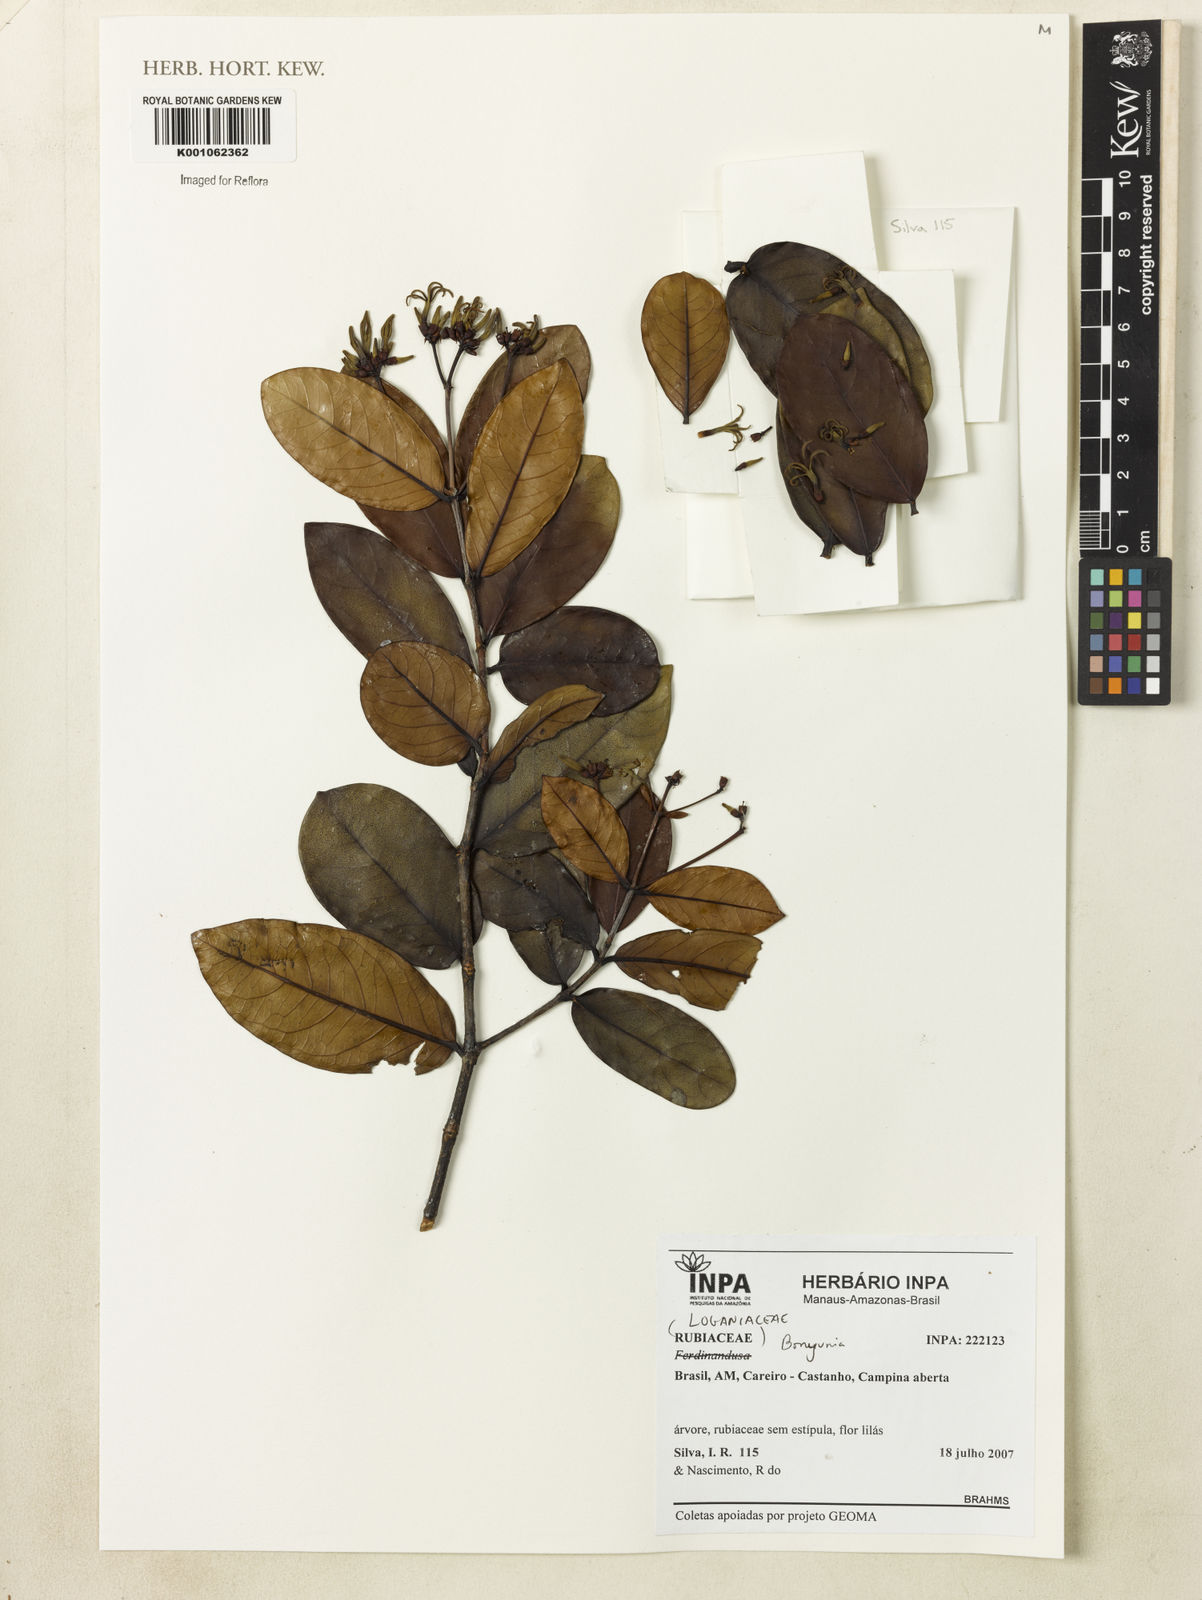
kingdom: Plantae
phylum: Tracheophyta
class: Magnoliopsida
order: Gentianales
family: Loganiaceae
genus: Bonyunia
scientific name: Bonyunia
